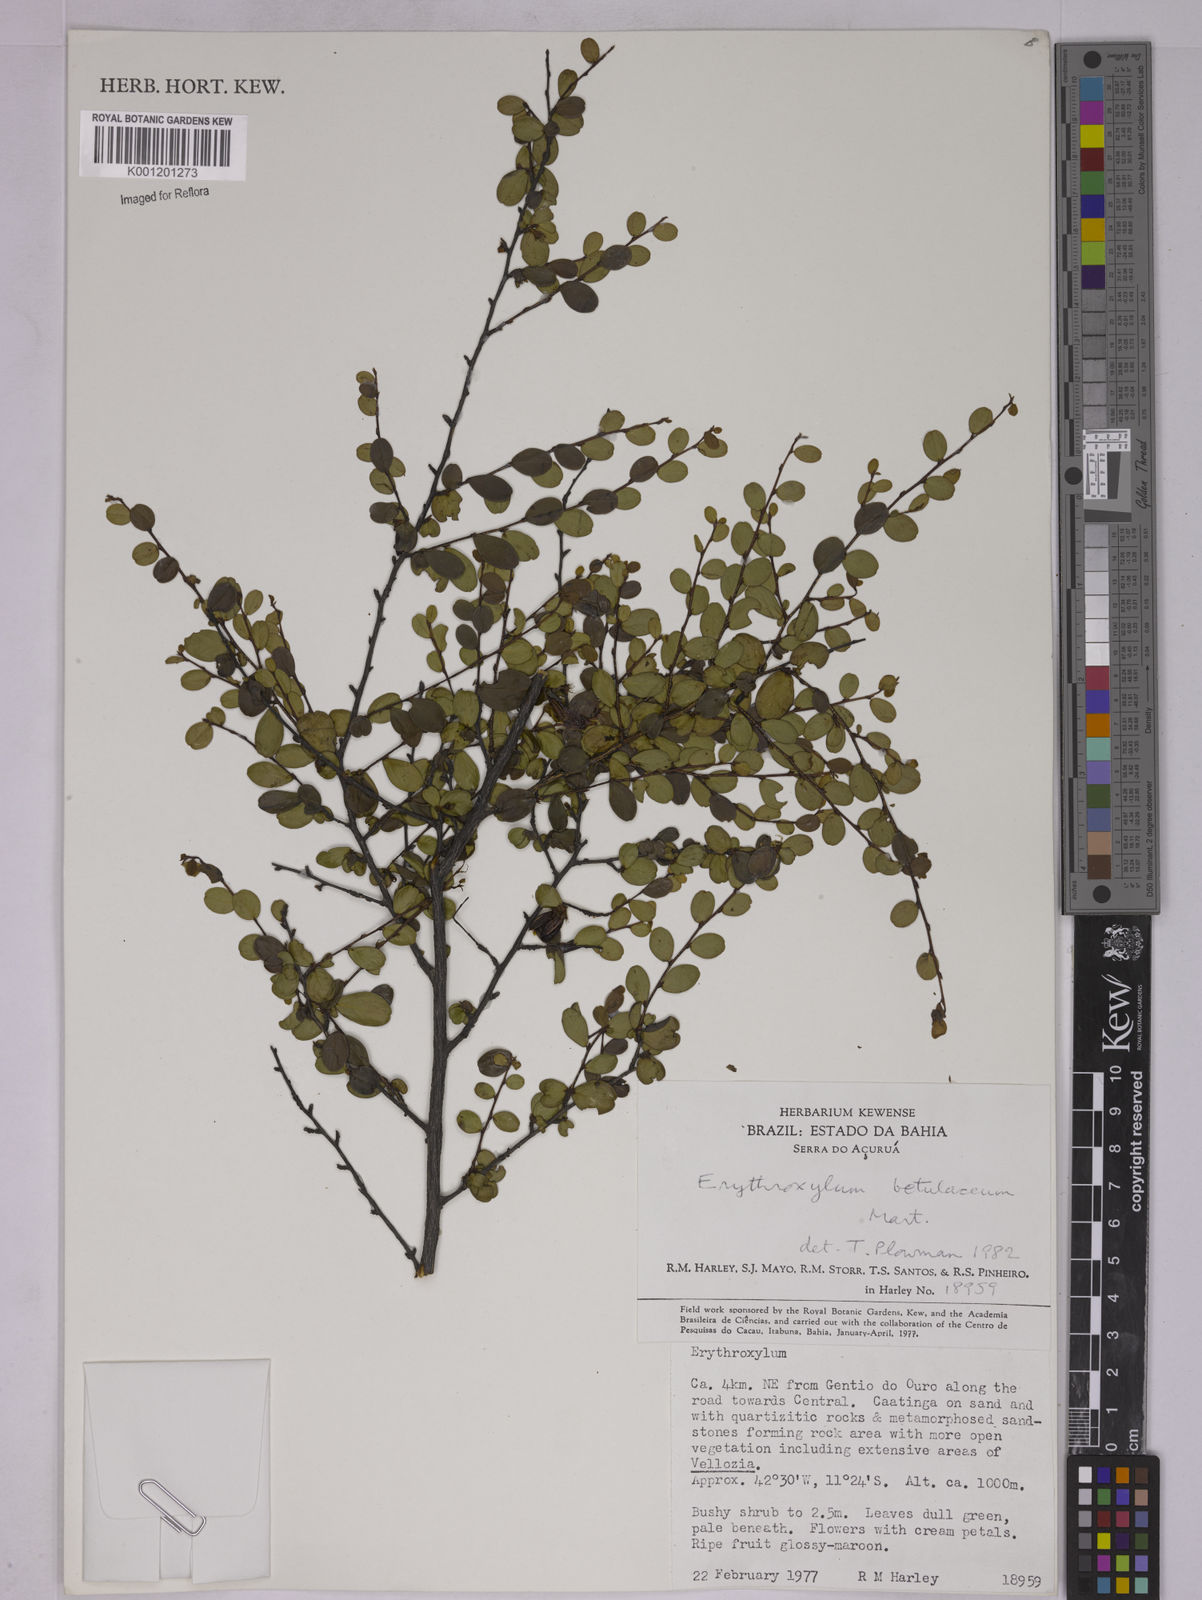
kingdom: Plantae
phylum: Tracheophyta
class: Magnoliopsida
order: Malpighiales
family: Erythroxylaceae
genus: Erythroxylum
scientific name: Erythroxylum betulaceum
